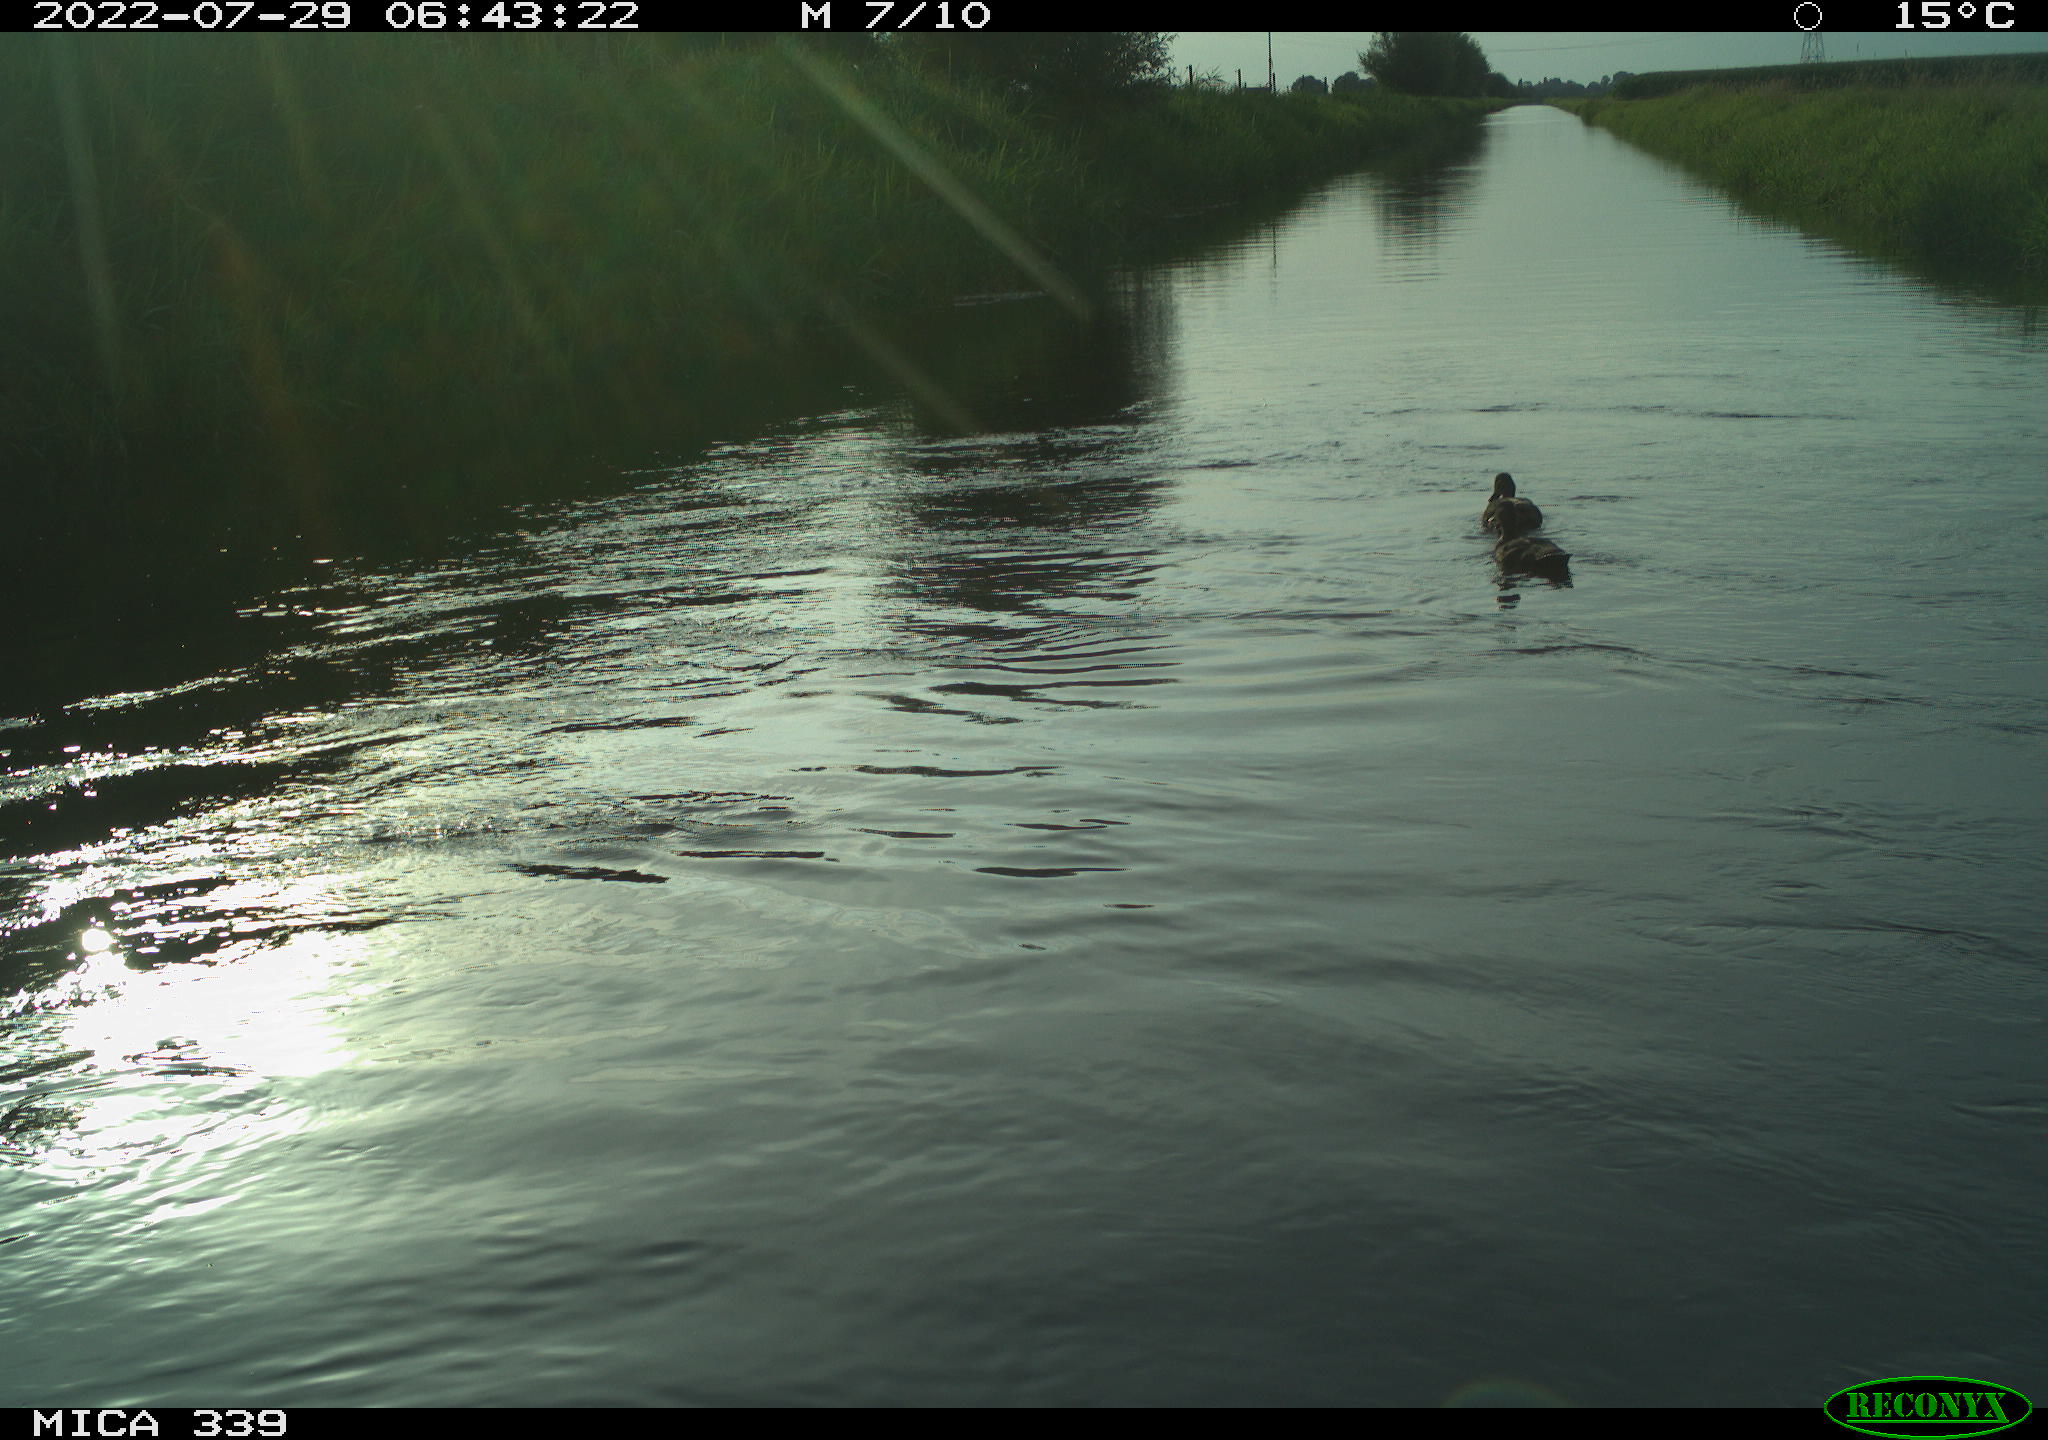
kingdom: Animalia
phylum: Chordata
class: Aves
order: Gruiformes
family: Rallidae
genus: Gallinula
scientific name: Gallinula chloropus
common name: Common moorhen
